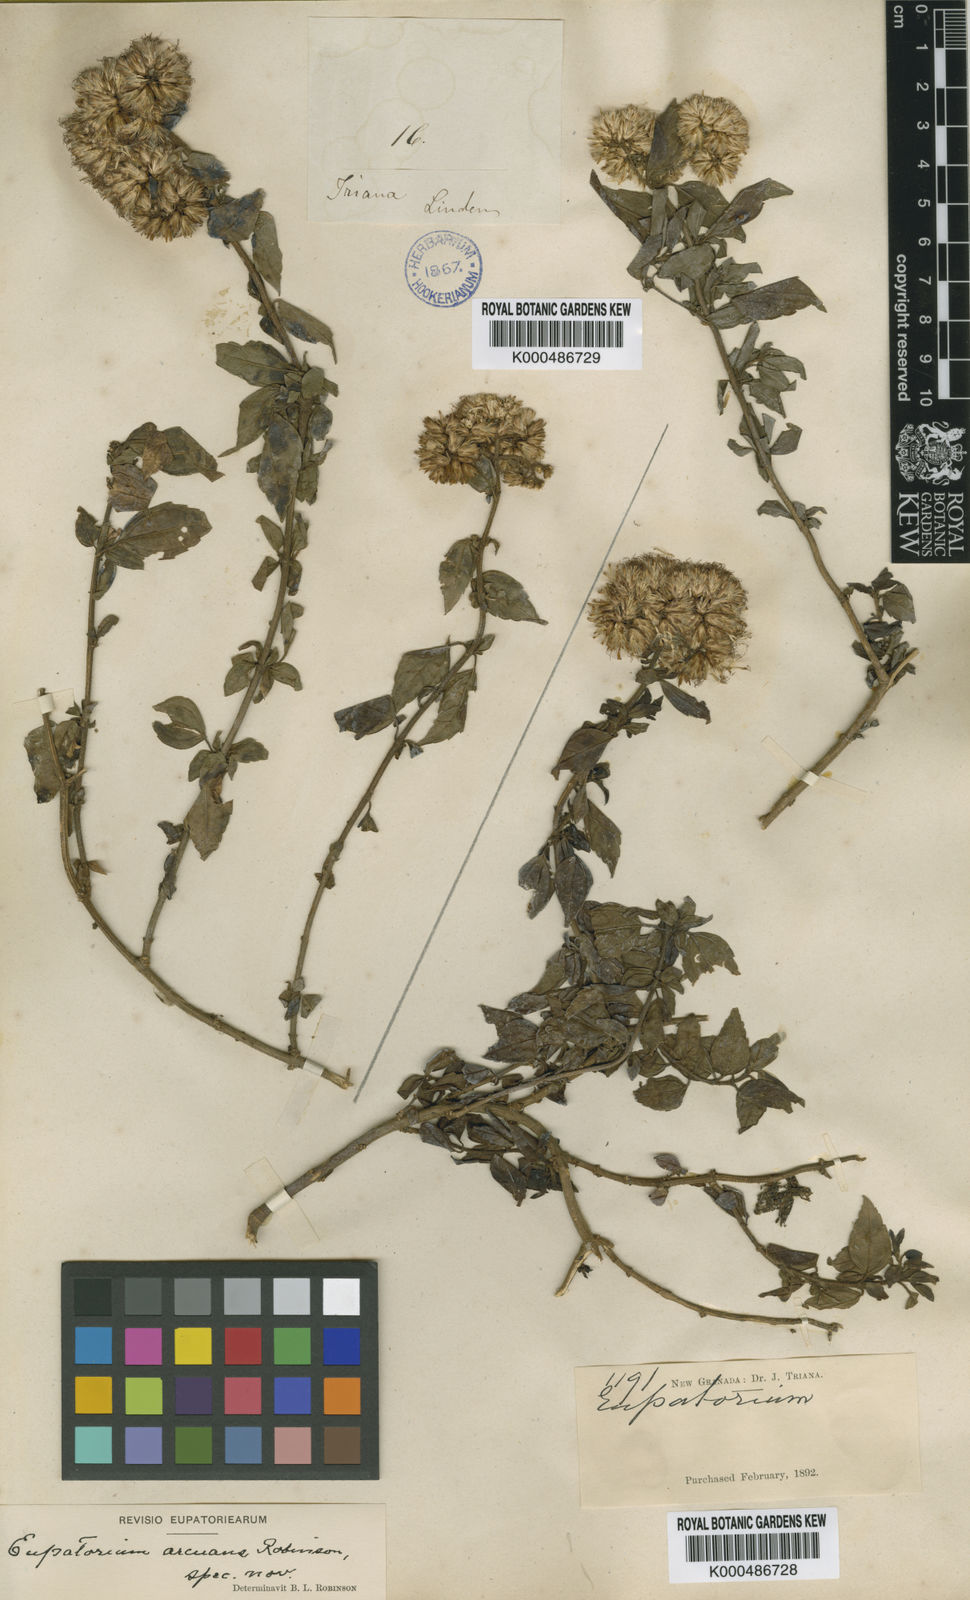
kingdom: Plantae
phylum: Tracheophyta
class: Magnoliopsida
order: Asterales
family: Asteraceae
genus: Asplundianthus
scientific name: Asplundianthus arcuans
